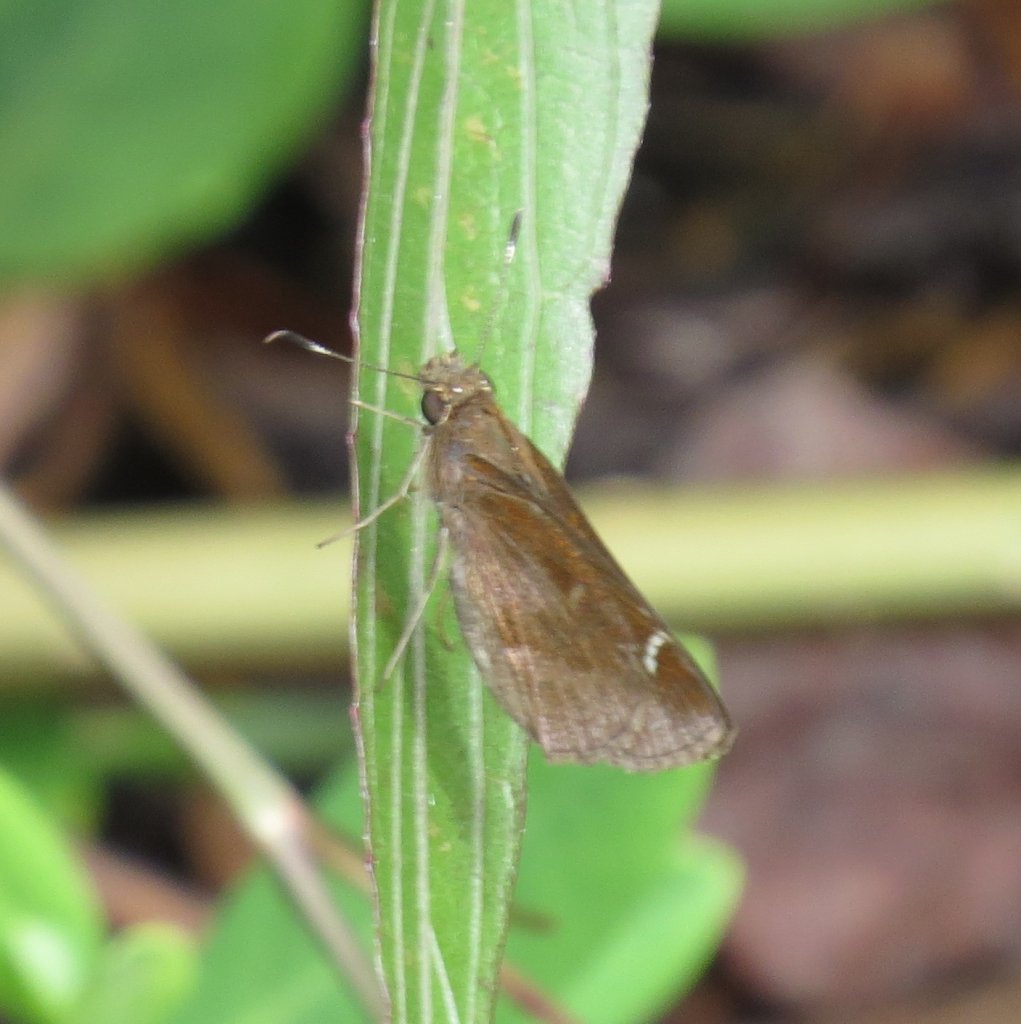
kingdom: Animalia
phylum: Arthropoda
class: Insecta
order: Lepidoptera
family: Hesperiidae
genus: Lerema
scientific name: Lerema accius
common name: Clouded Skipper
